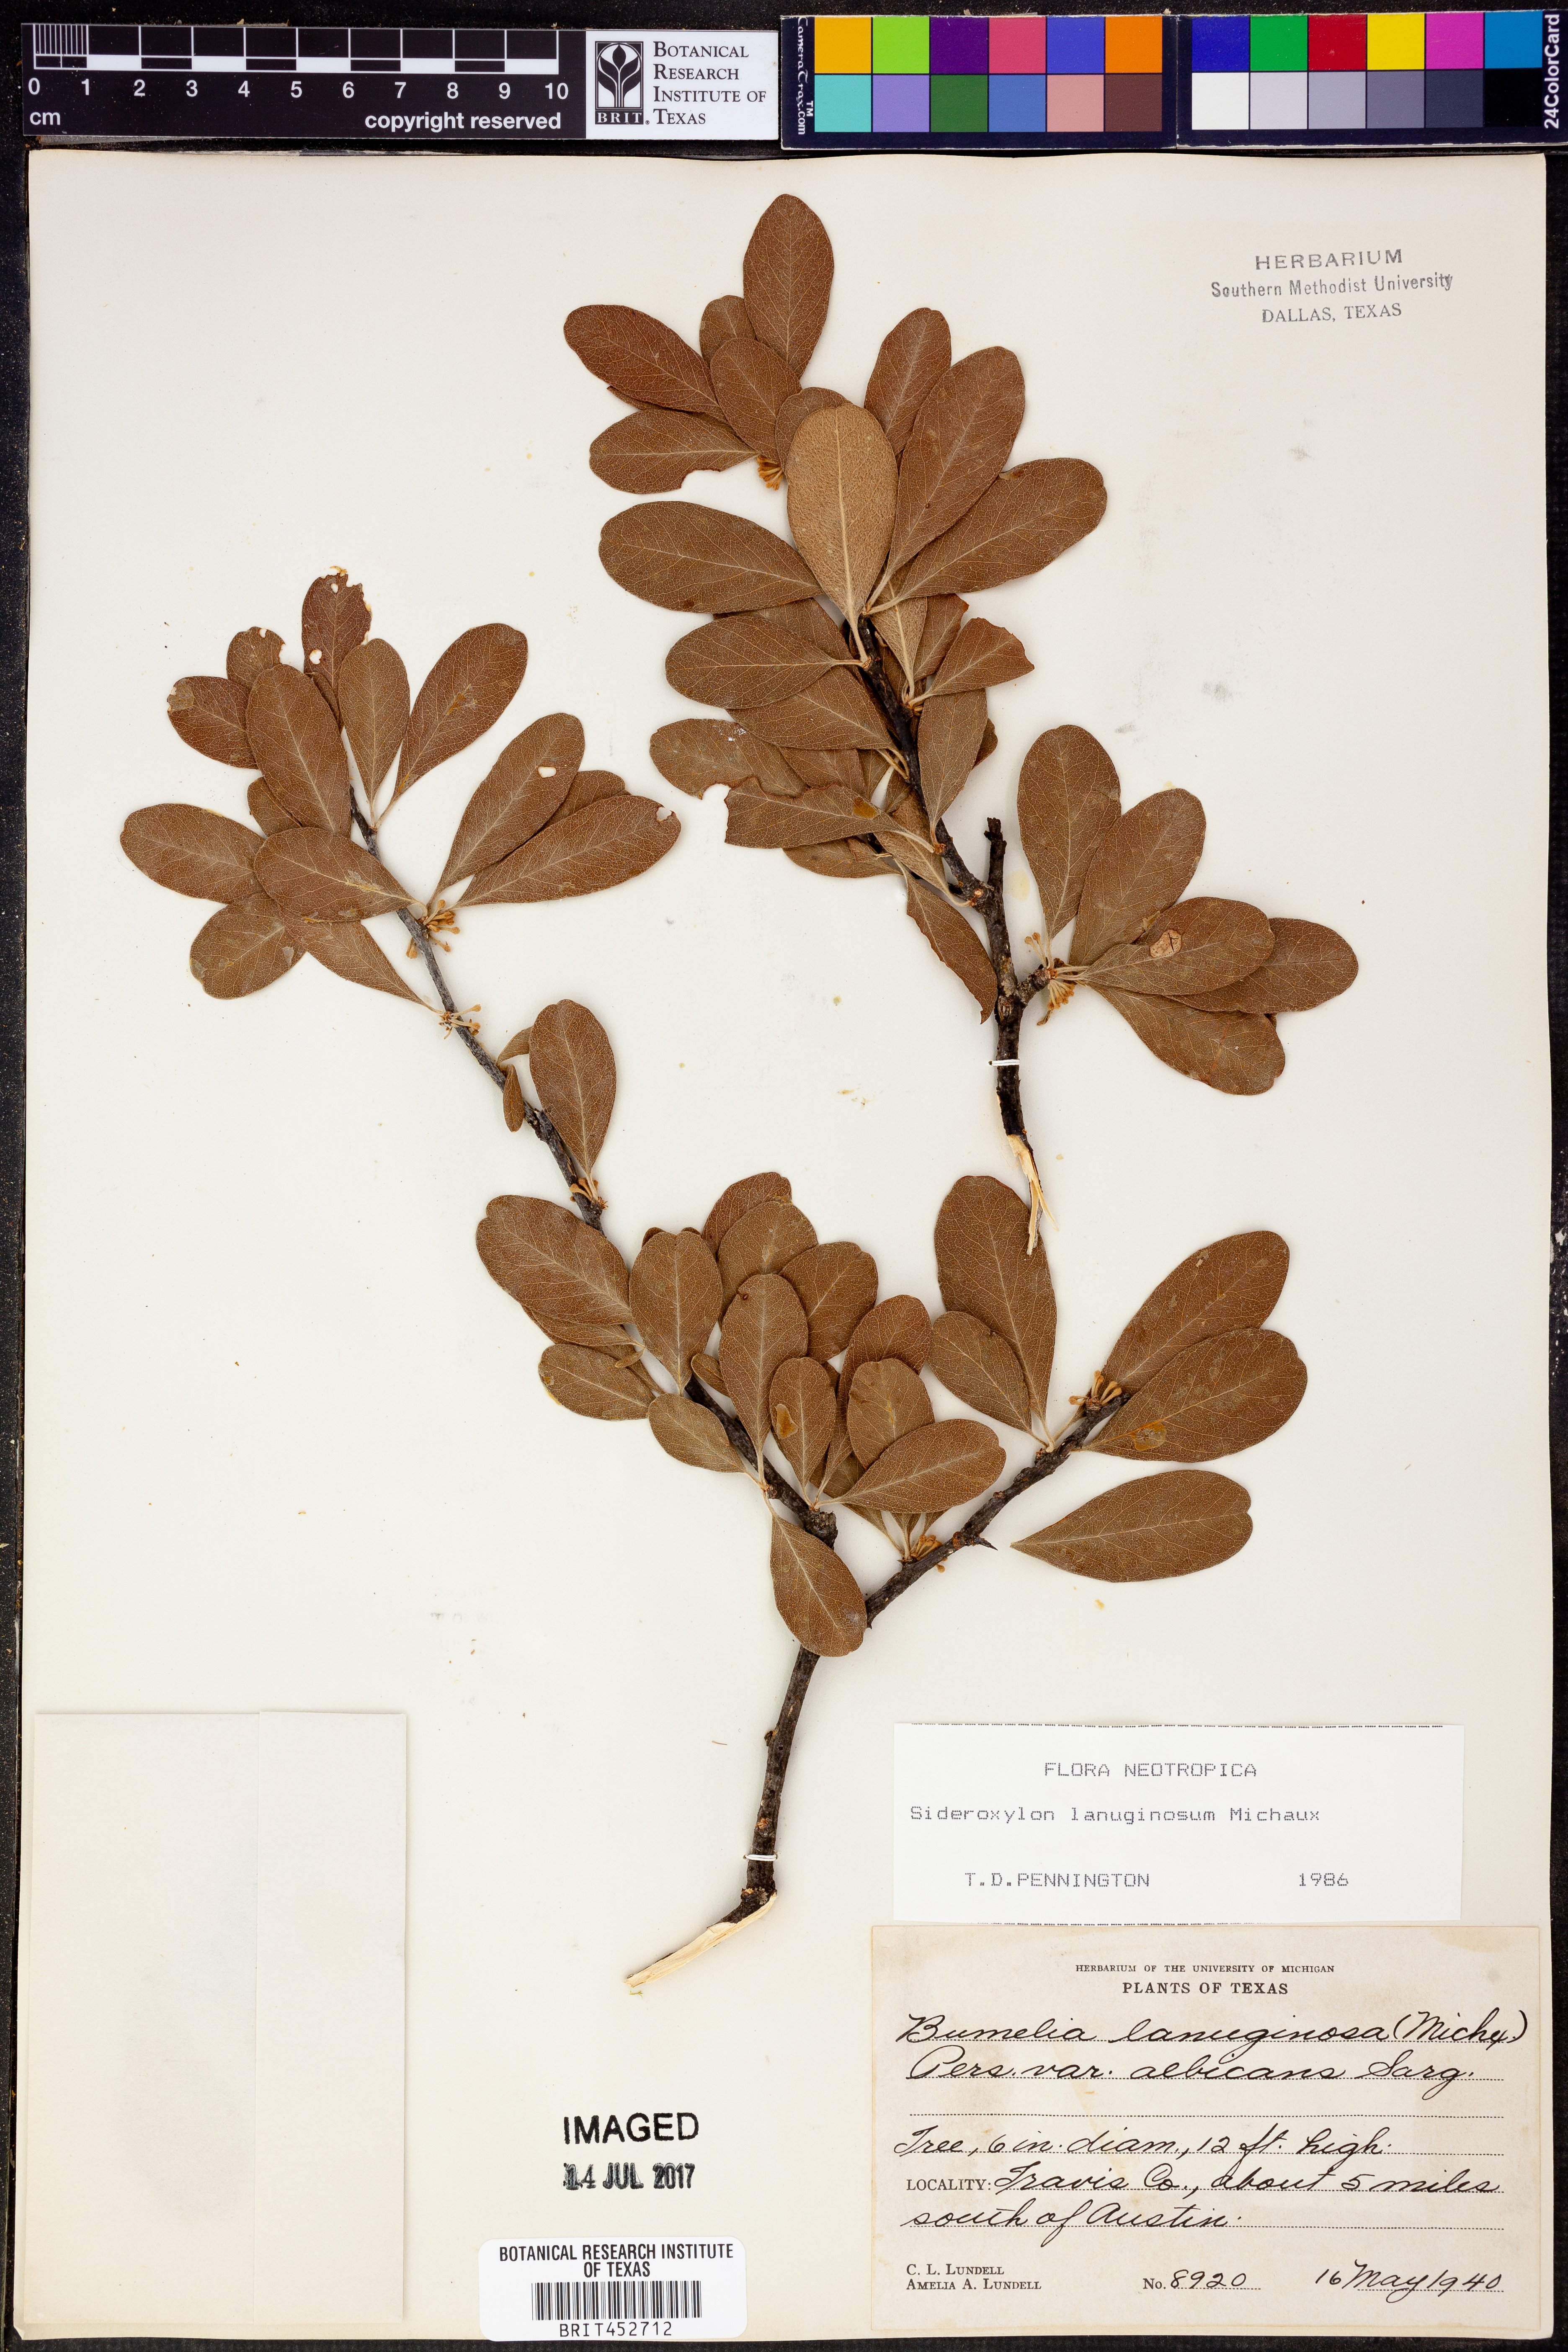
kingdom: Plantae
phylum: Tracheophyta
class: Magnoliopsida
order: Ericales
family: Sapotaceae
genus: Sideroxylon
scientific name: Sideroxylon lanuginosum
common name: Chittamwood
